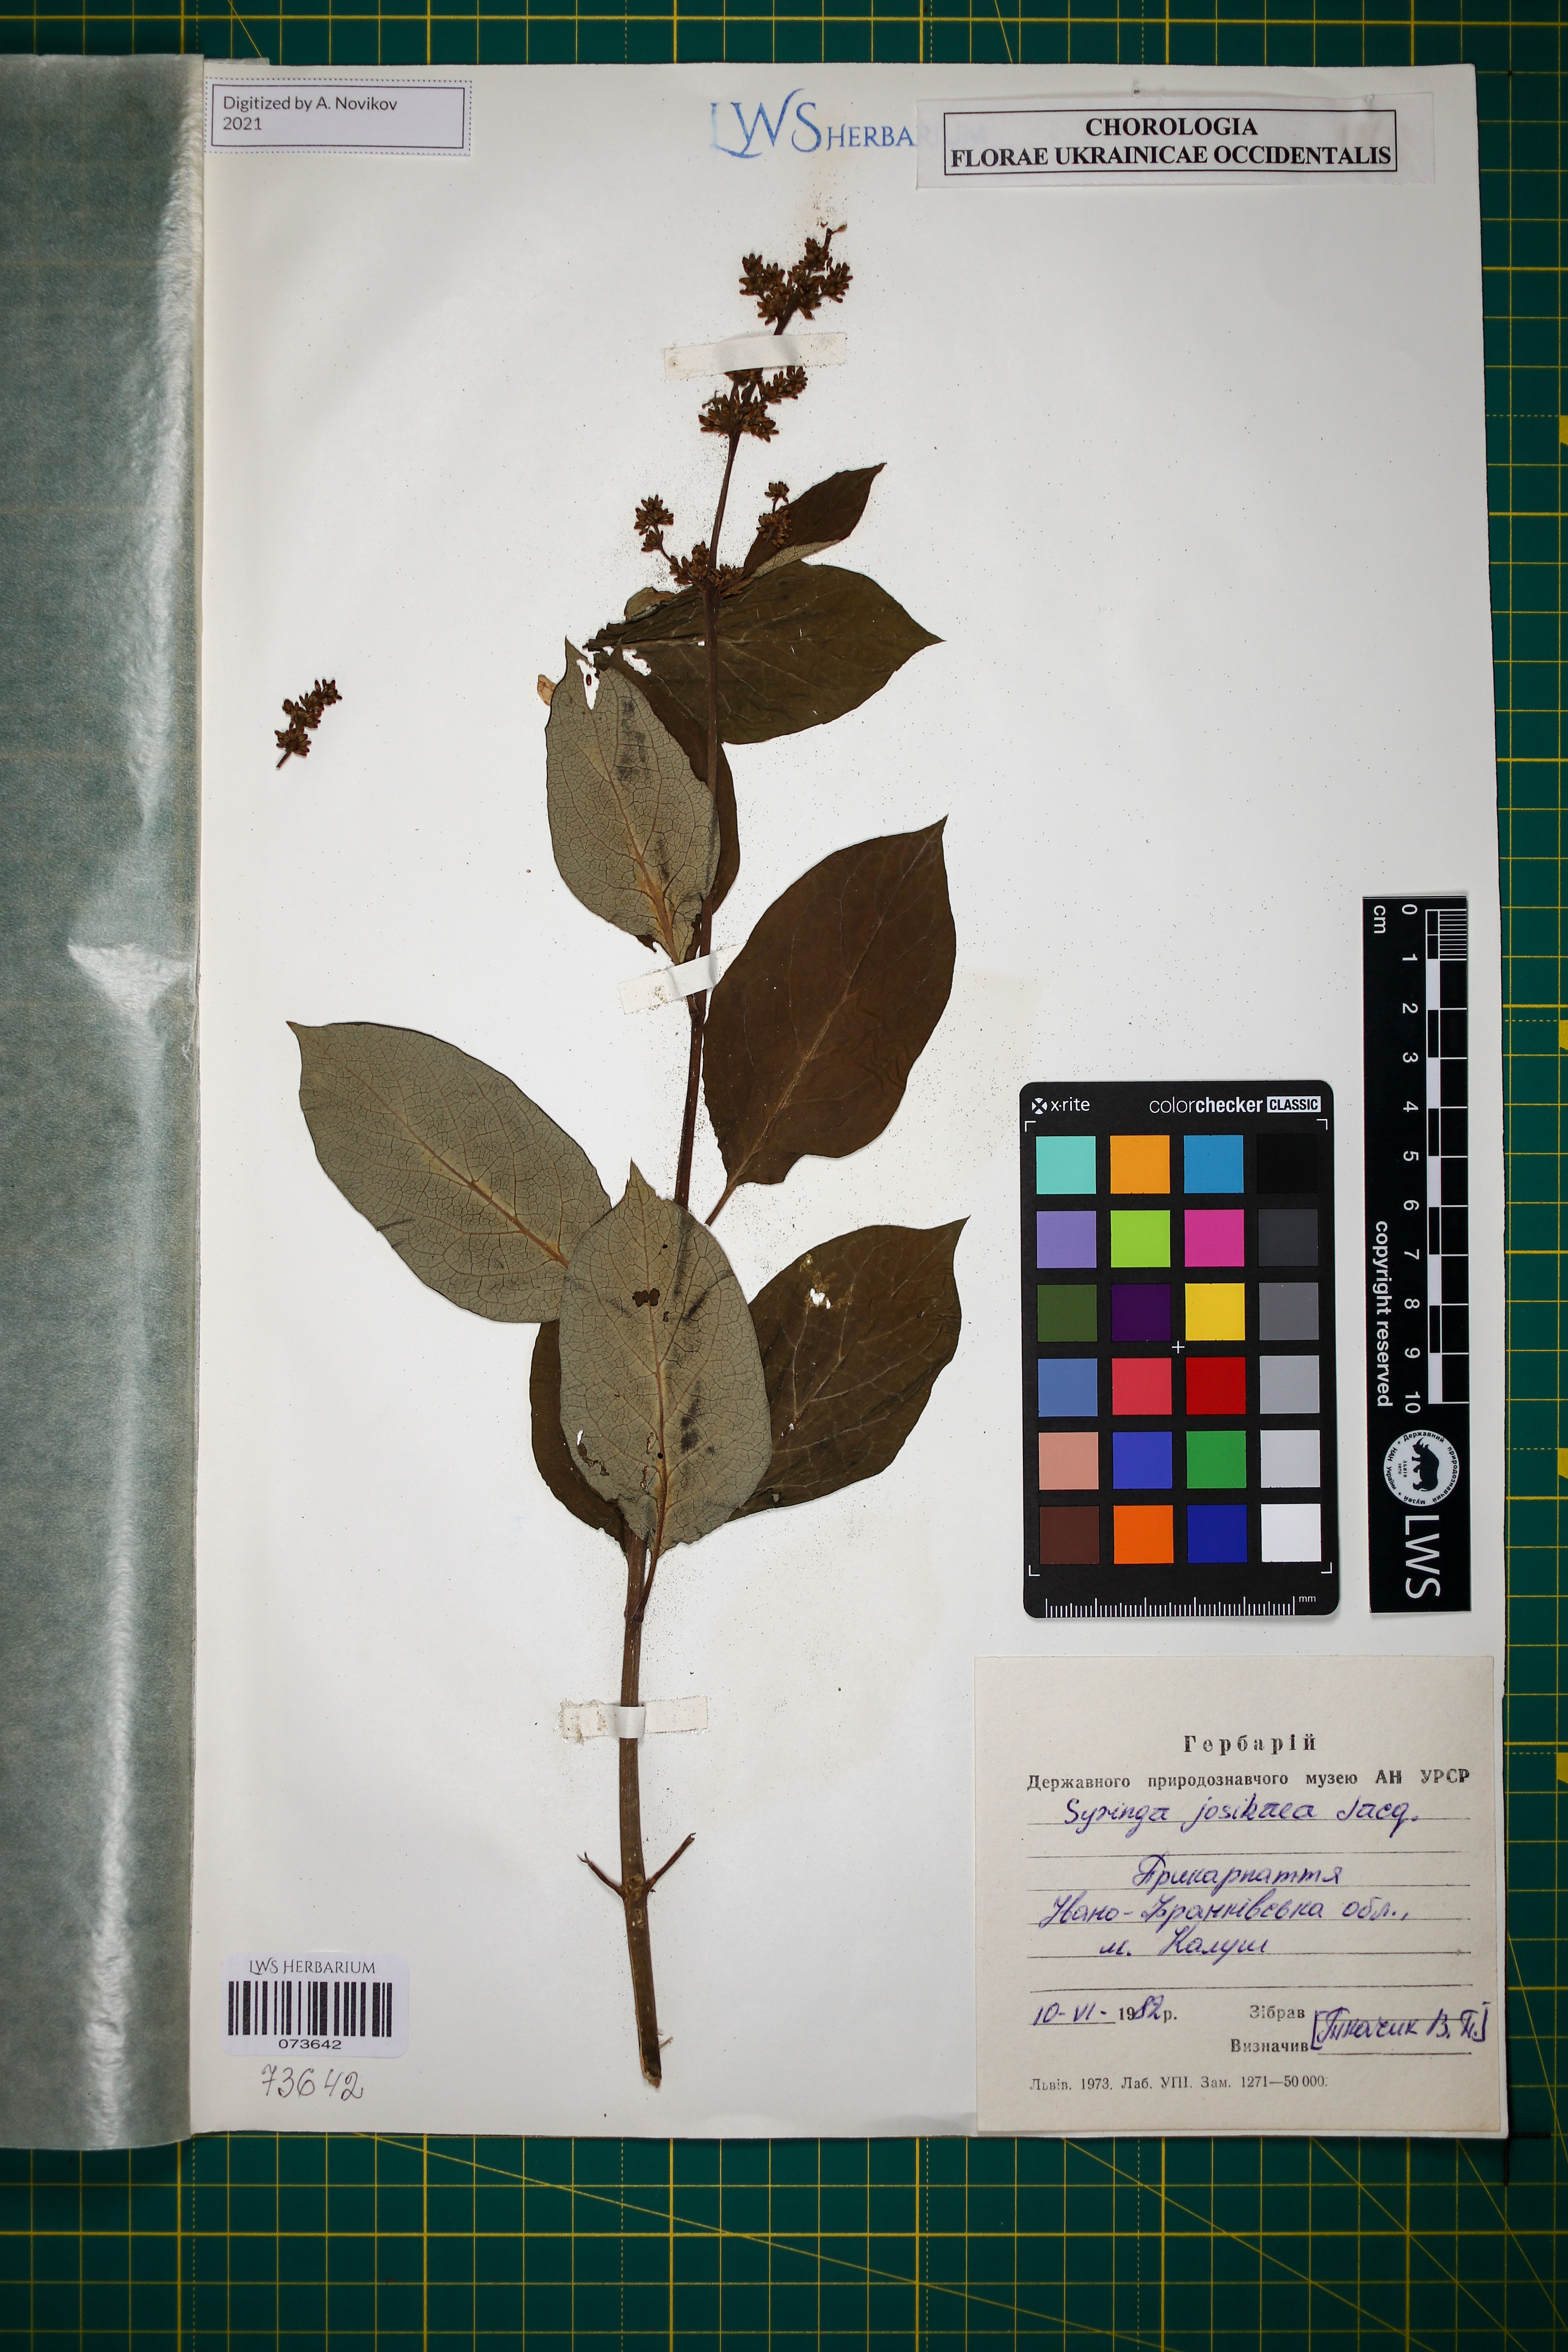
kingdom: Plantae
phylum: Tracheophyta
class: Magnoliopsida
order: Lamiales
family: Oleaceae
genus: Syringa
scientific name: Syringa josikaea
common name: Hungarian lilac
